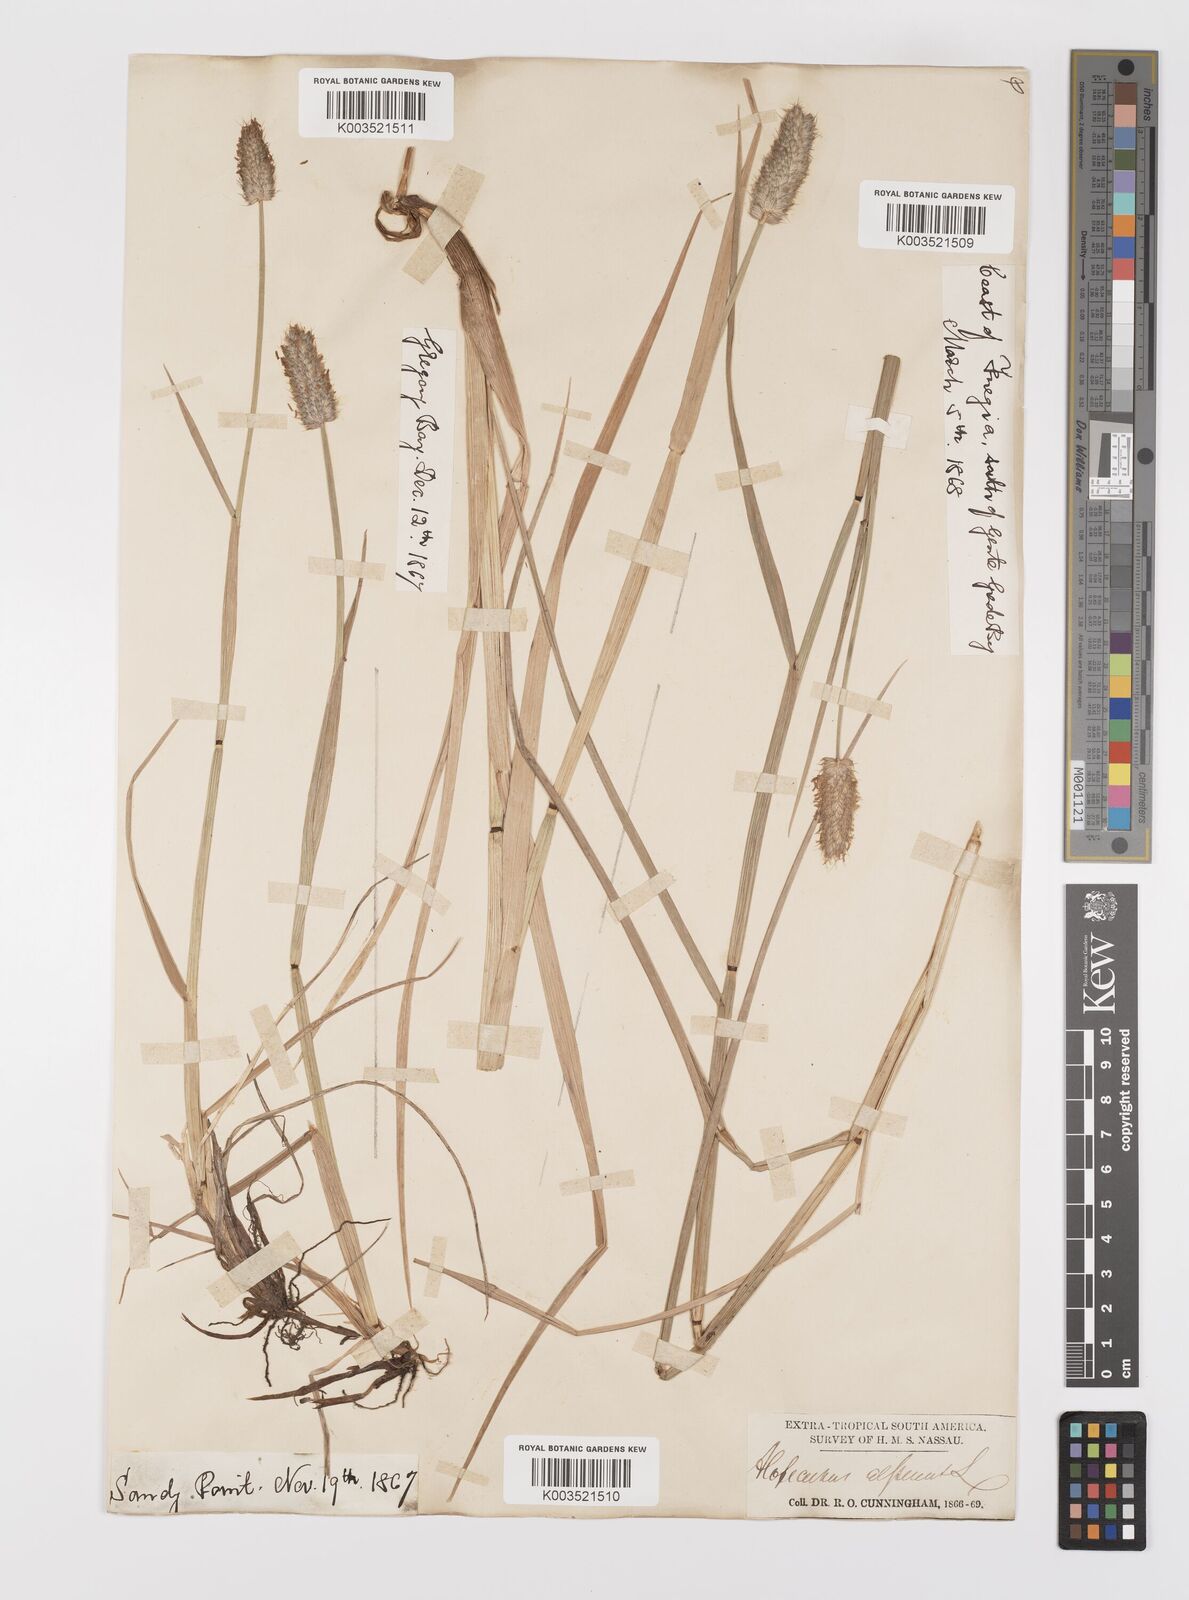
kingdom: Plantae
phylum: Tracheophyta
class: Liliopsida
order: Poales
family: Poaceae
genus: Alopecurus
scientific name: Alopecurus magellanicus
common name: Alpine foxtail
